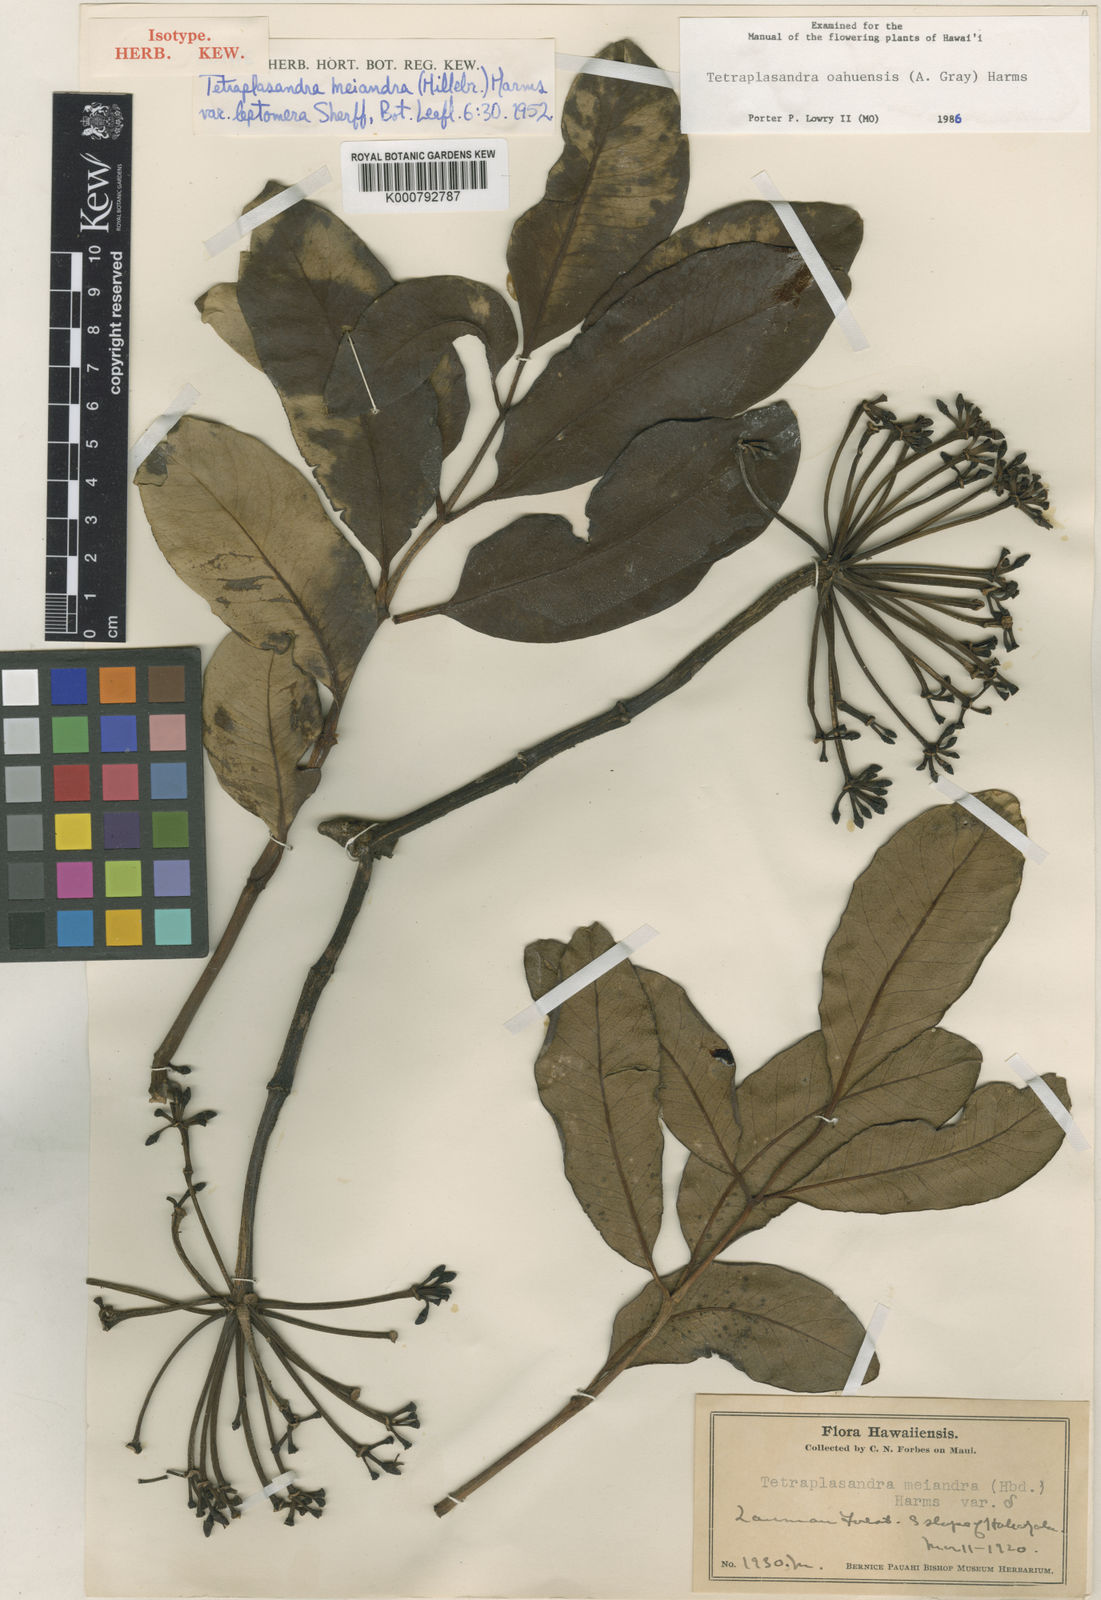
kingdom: Plantae
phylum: Tracheophyta
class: Magnoliopsida
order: Apiales
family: Araliaceae
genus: Polyscias
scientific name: Polyscias oahuensis
